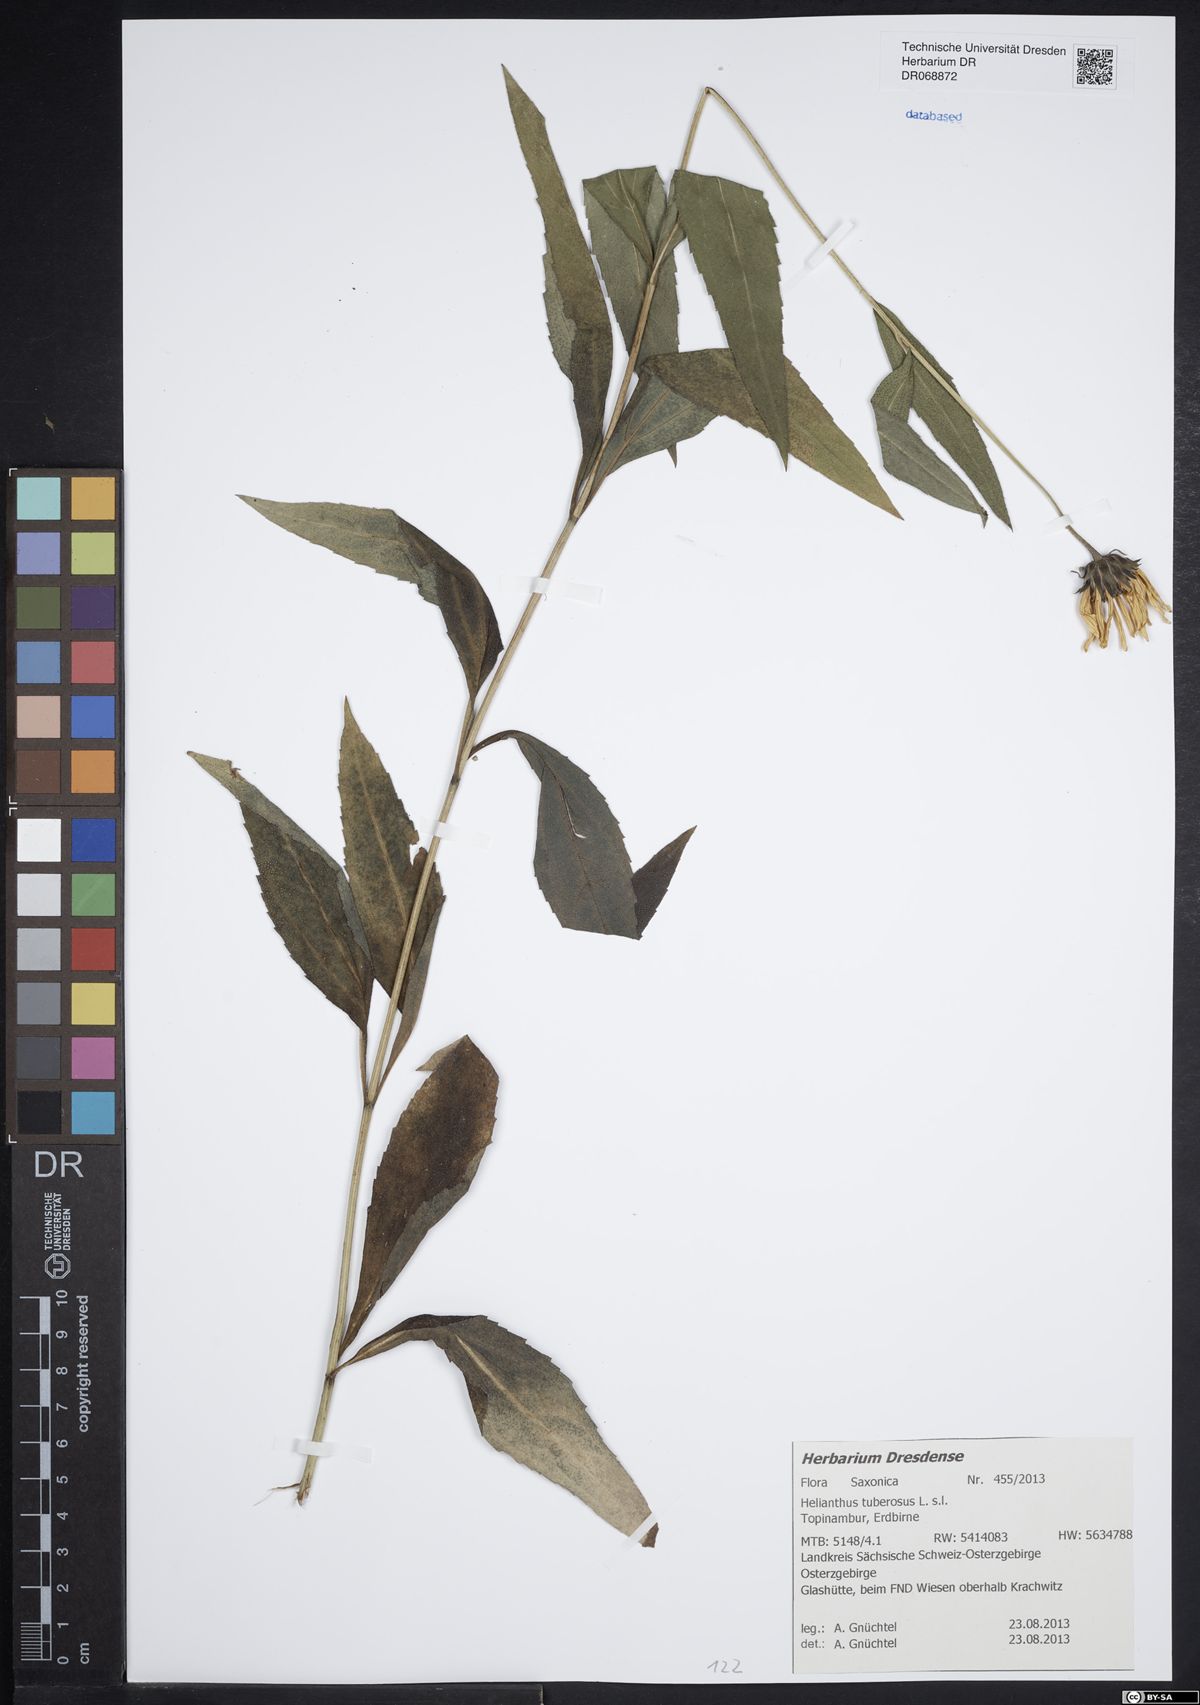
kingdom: Plantae
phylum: Tracheophyta
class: Magnoliopsida
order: Asterales
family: Asteraceae
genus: Helianthus
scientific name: Helianthus tuberosus
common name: Jerusalem artichoke
